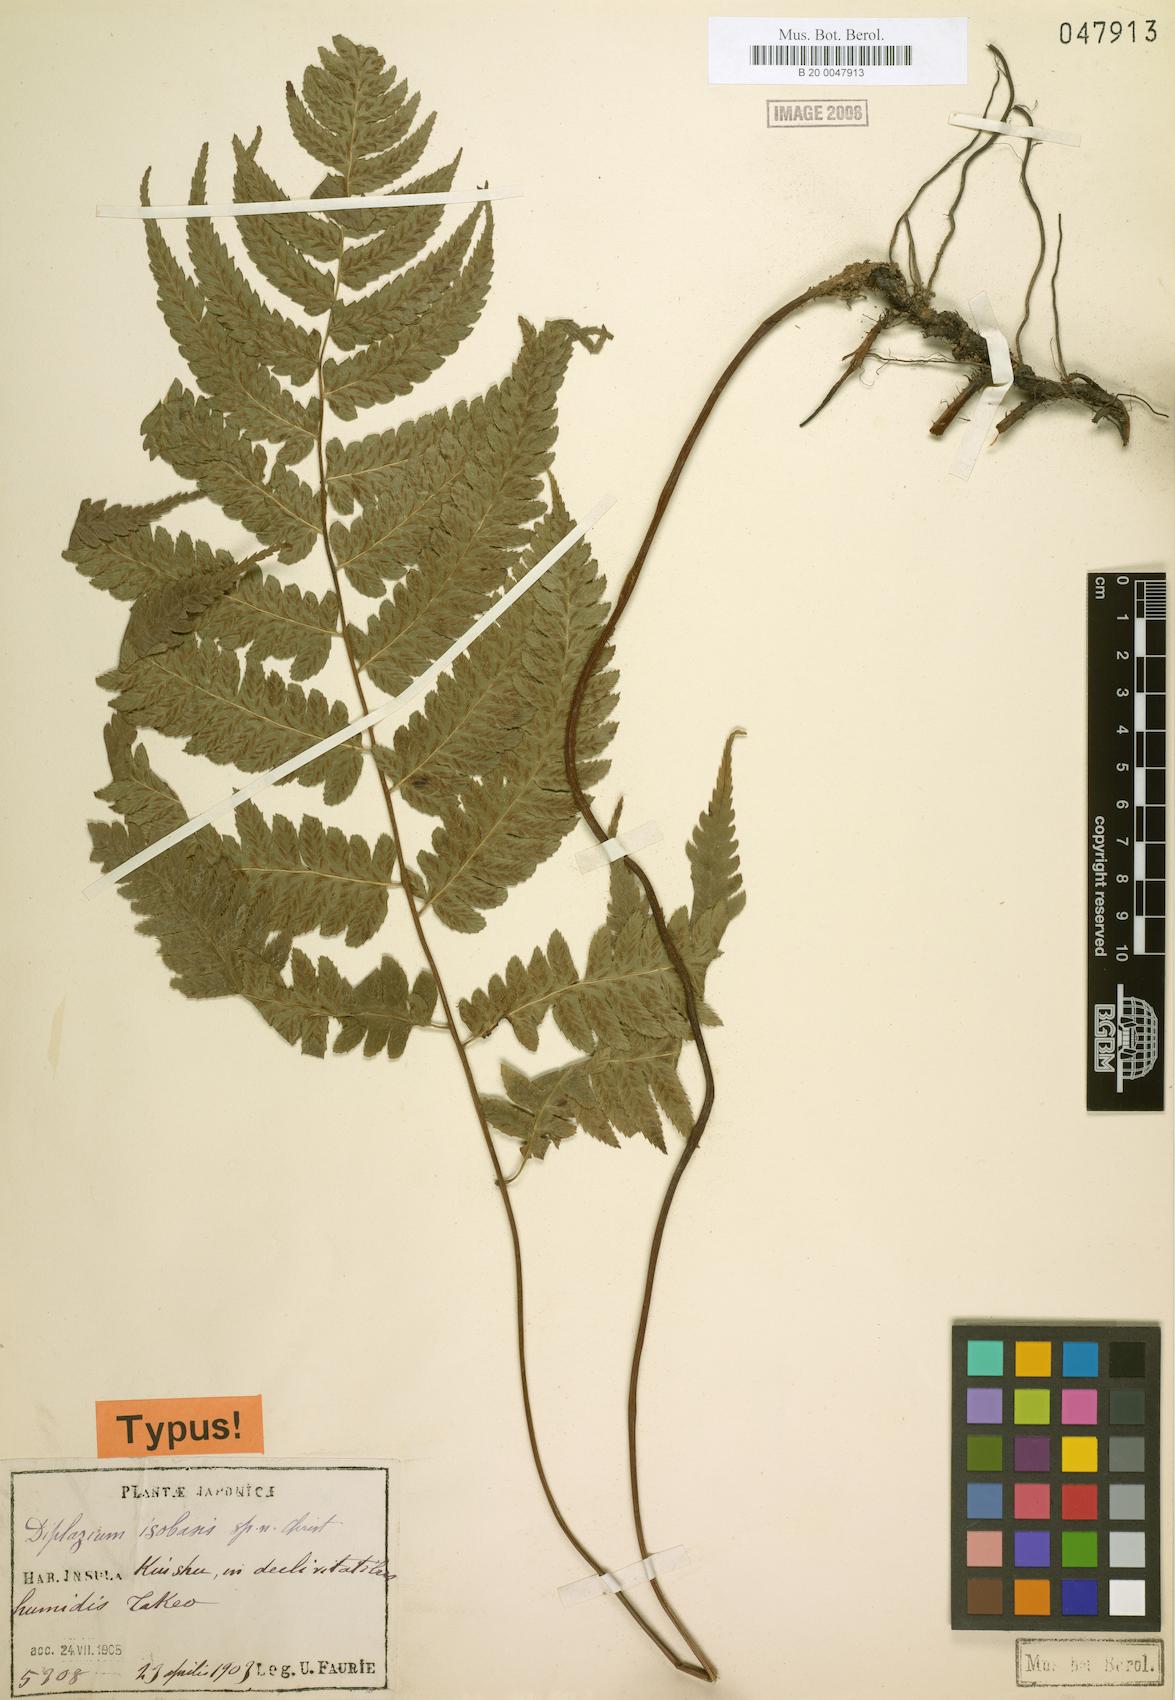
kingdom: Plantae
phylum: Tracheophyta
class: Polypodiopsida
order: Polypodiales
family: Athyriaceae
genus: Diplazium
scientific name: Diplazium mettenianum
